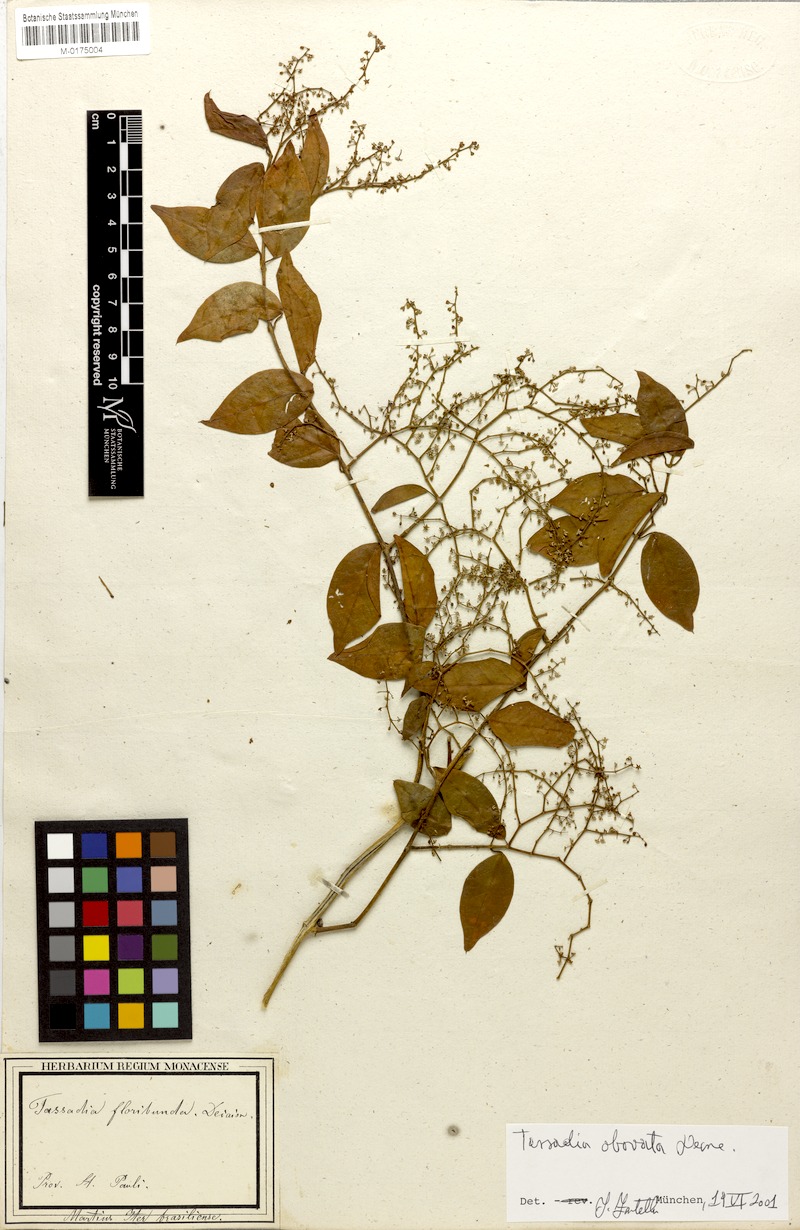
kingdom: Plantae
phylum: Tracheophyta
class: Magnoliopsida
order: Gentianales
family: Apocynaceae
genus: Tassadia
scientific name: Tassadia obovata
